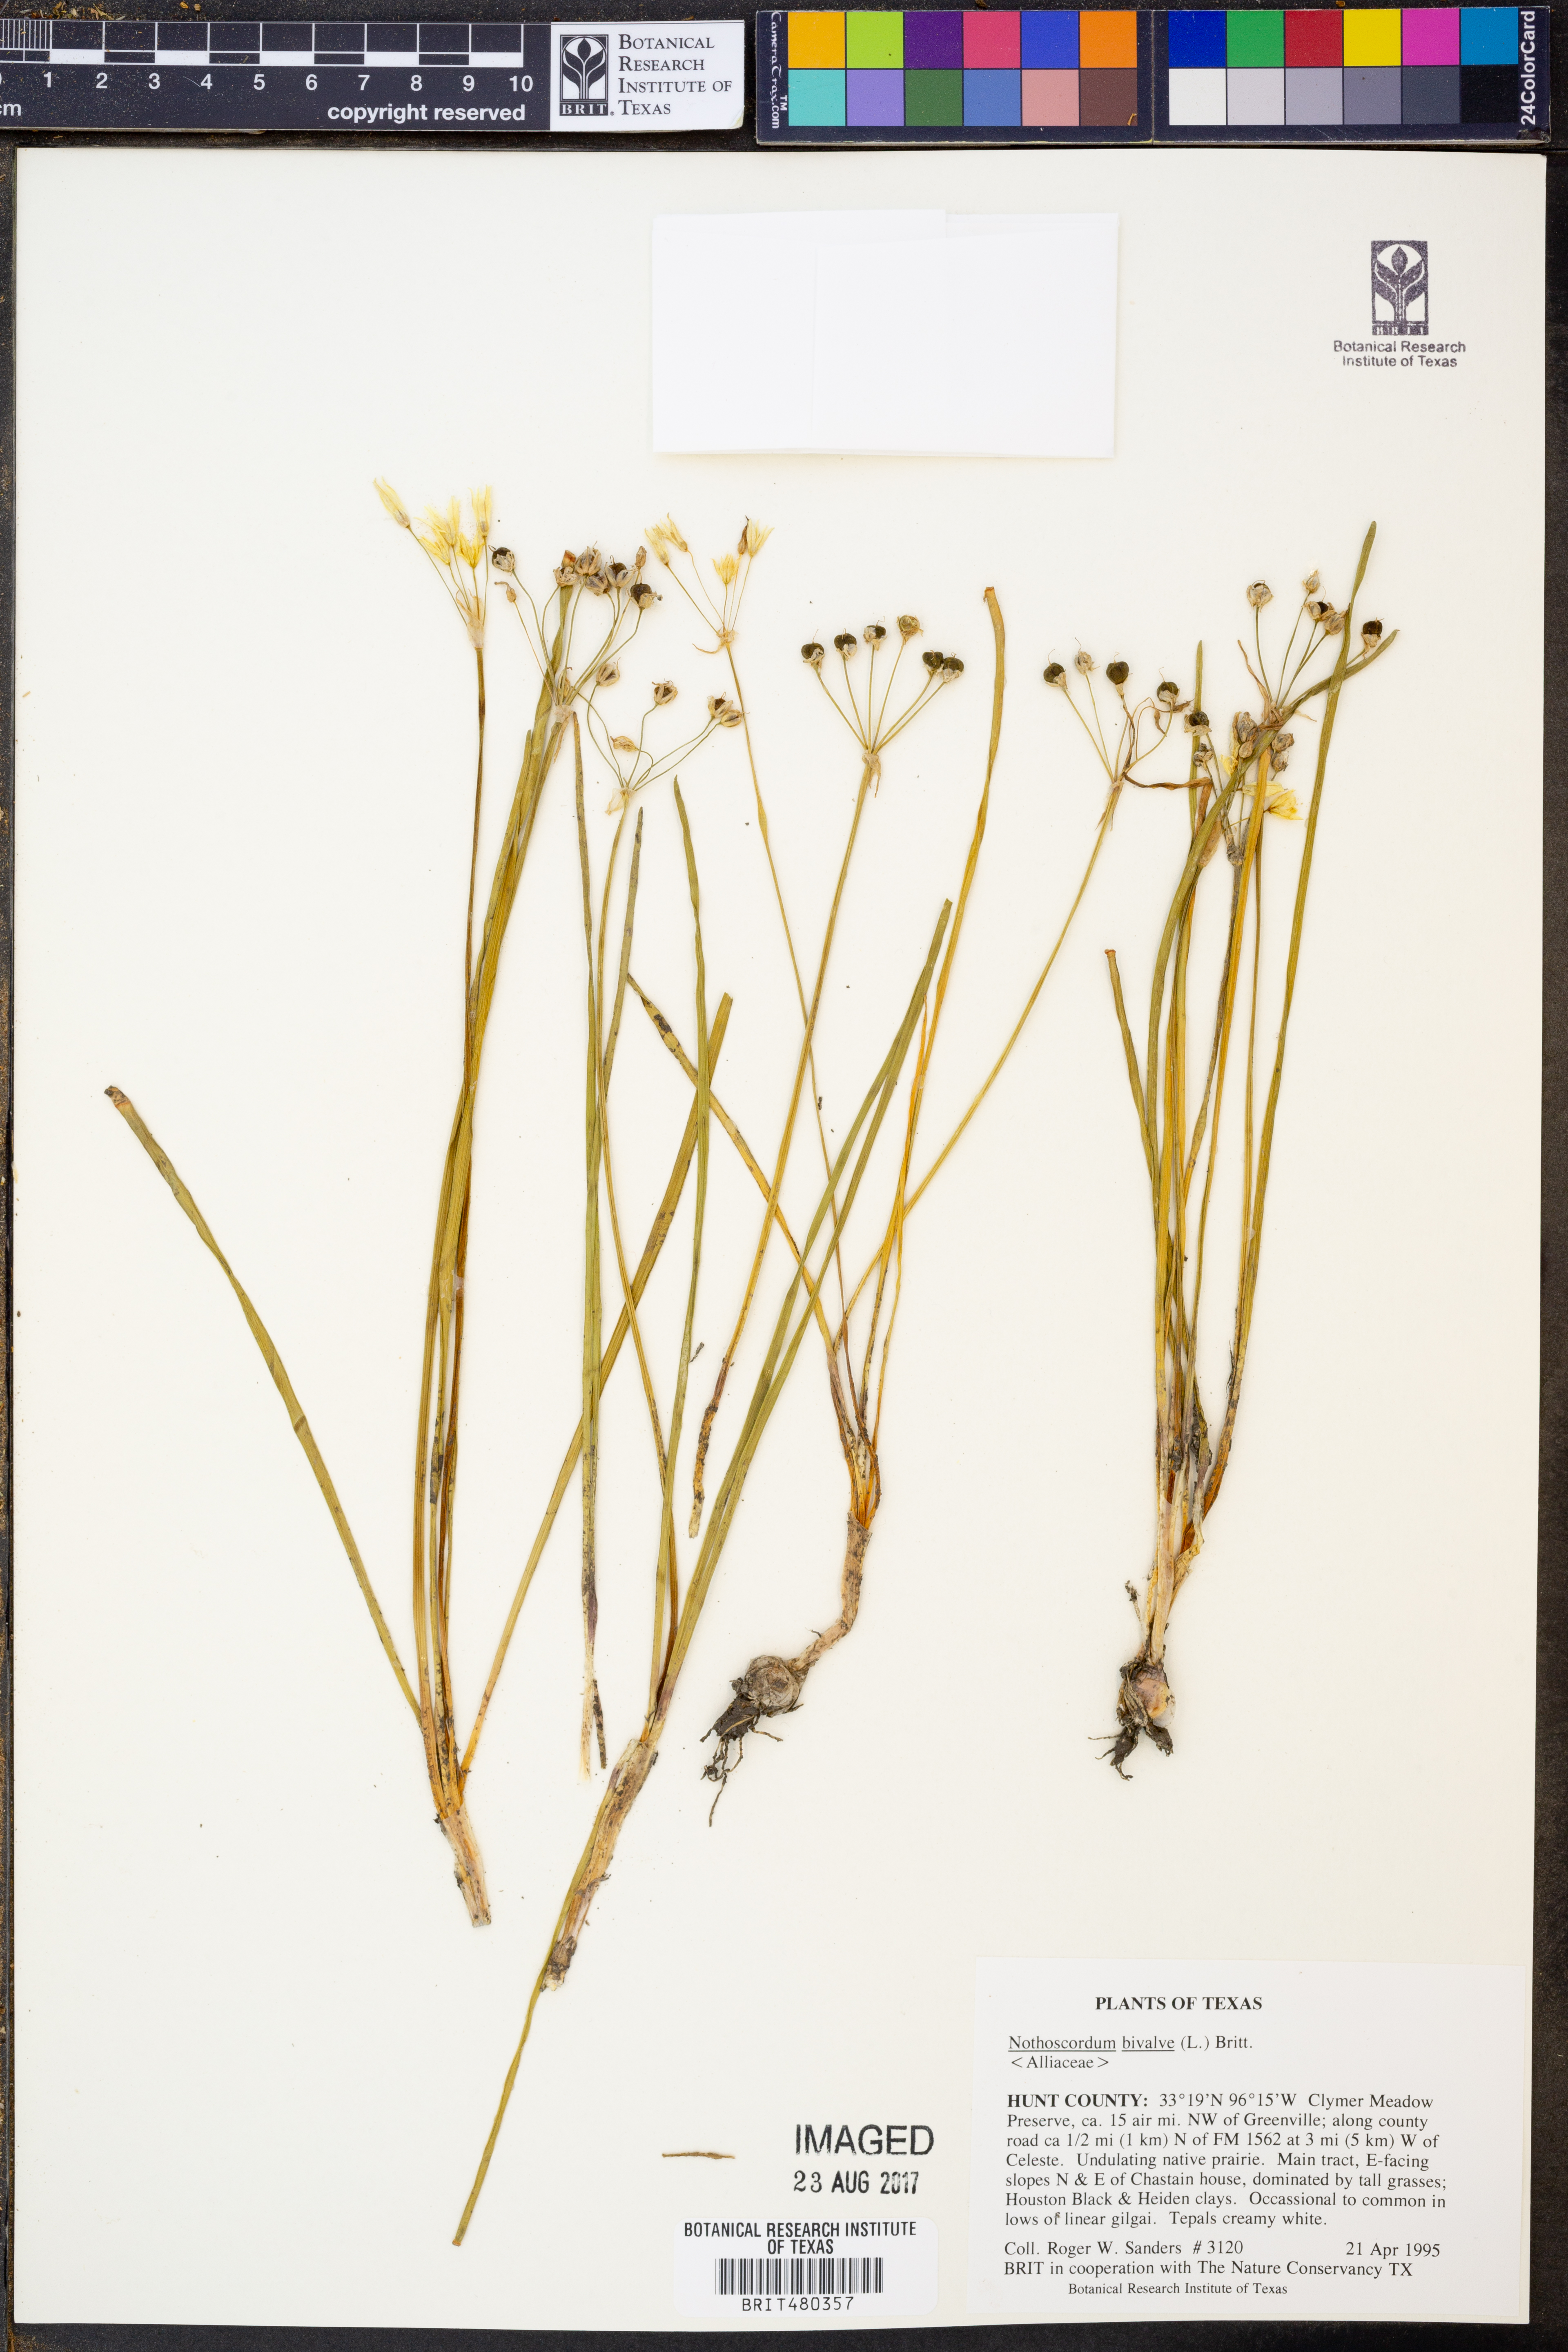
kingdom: Plantae
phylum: Tracheophyta
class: Liliopsida
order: Asparagales
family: Amaryllidaceae
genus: Nothoscordum
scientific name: Nothoscordum bivalve
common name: Crow-poison
